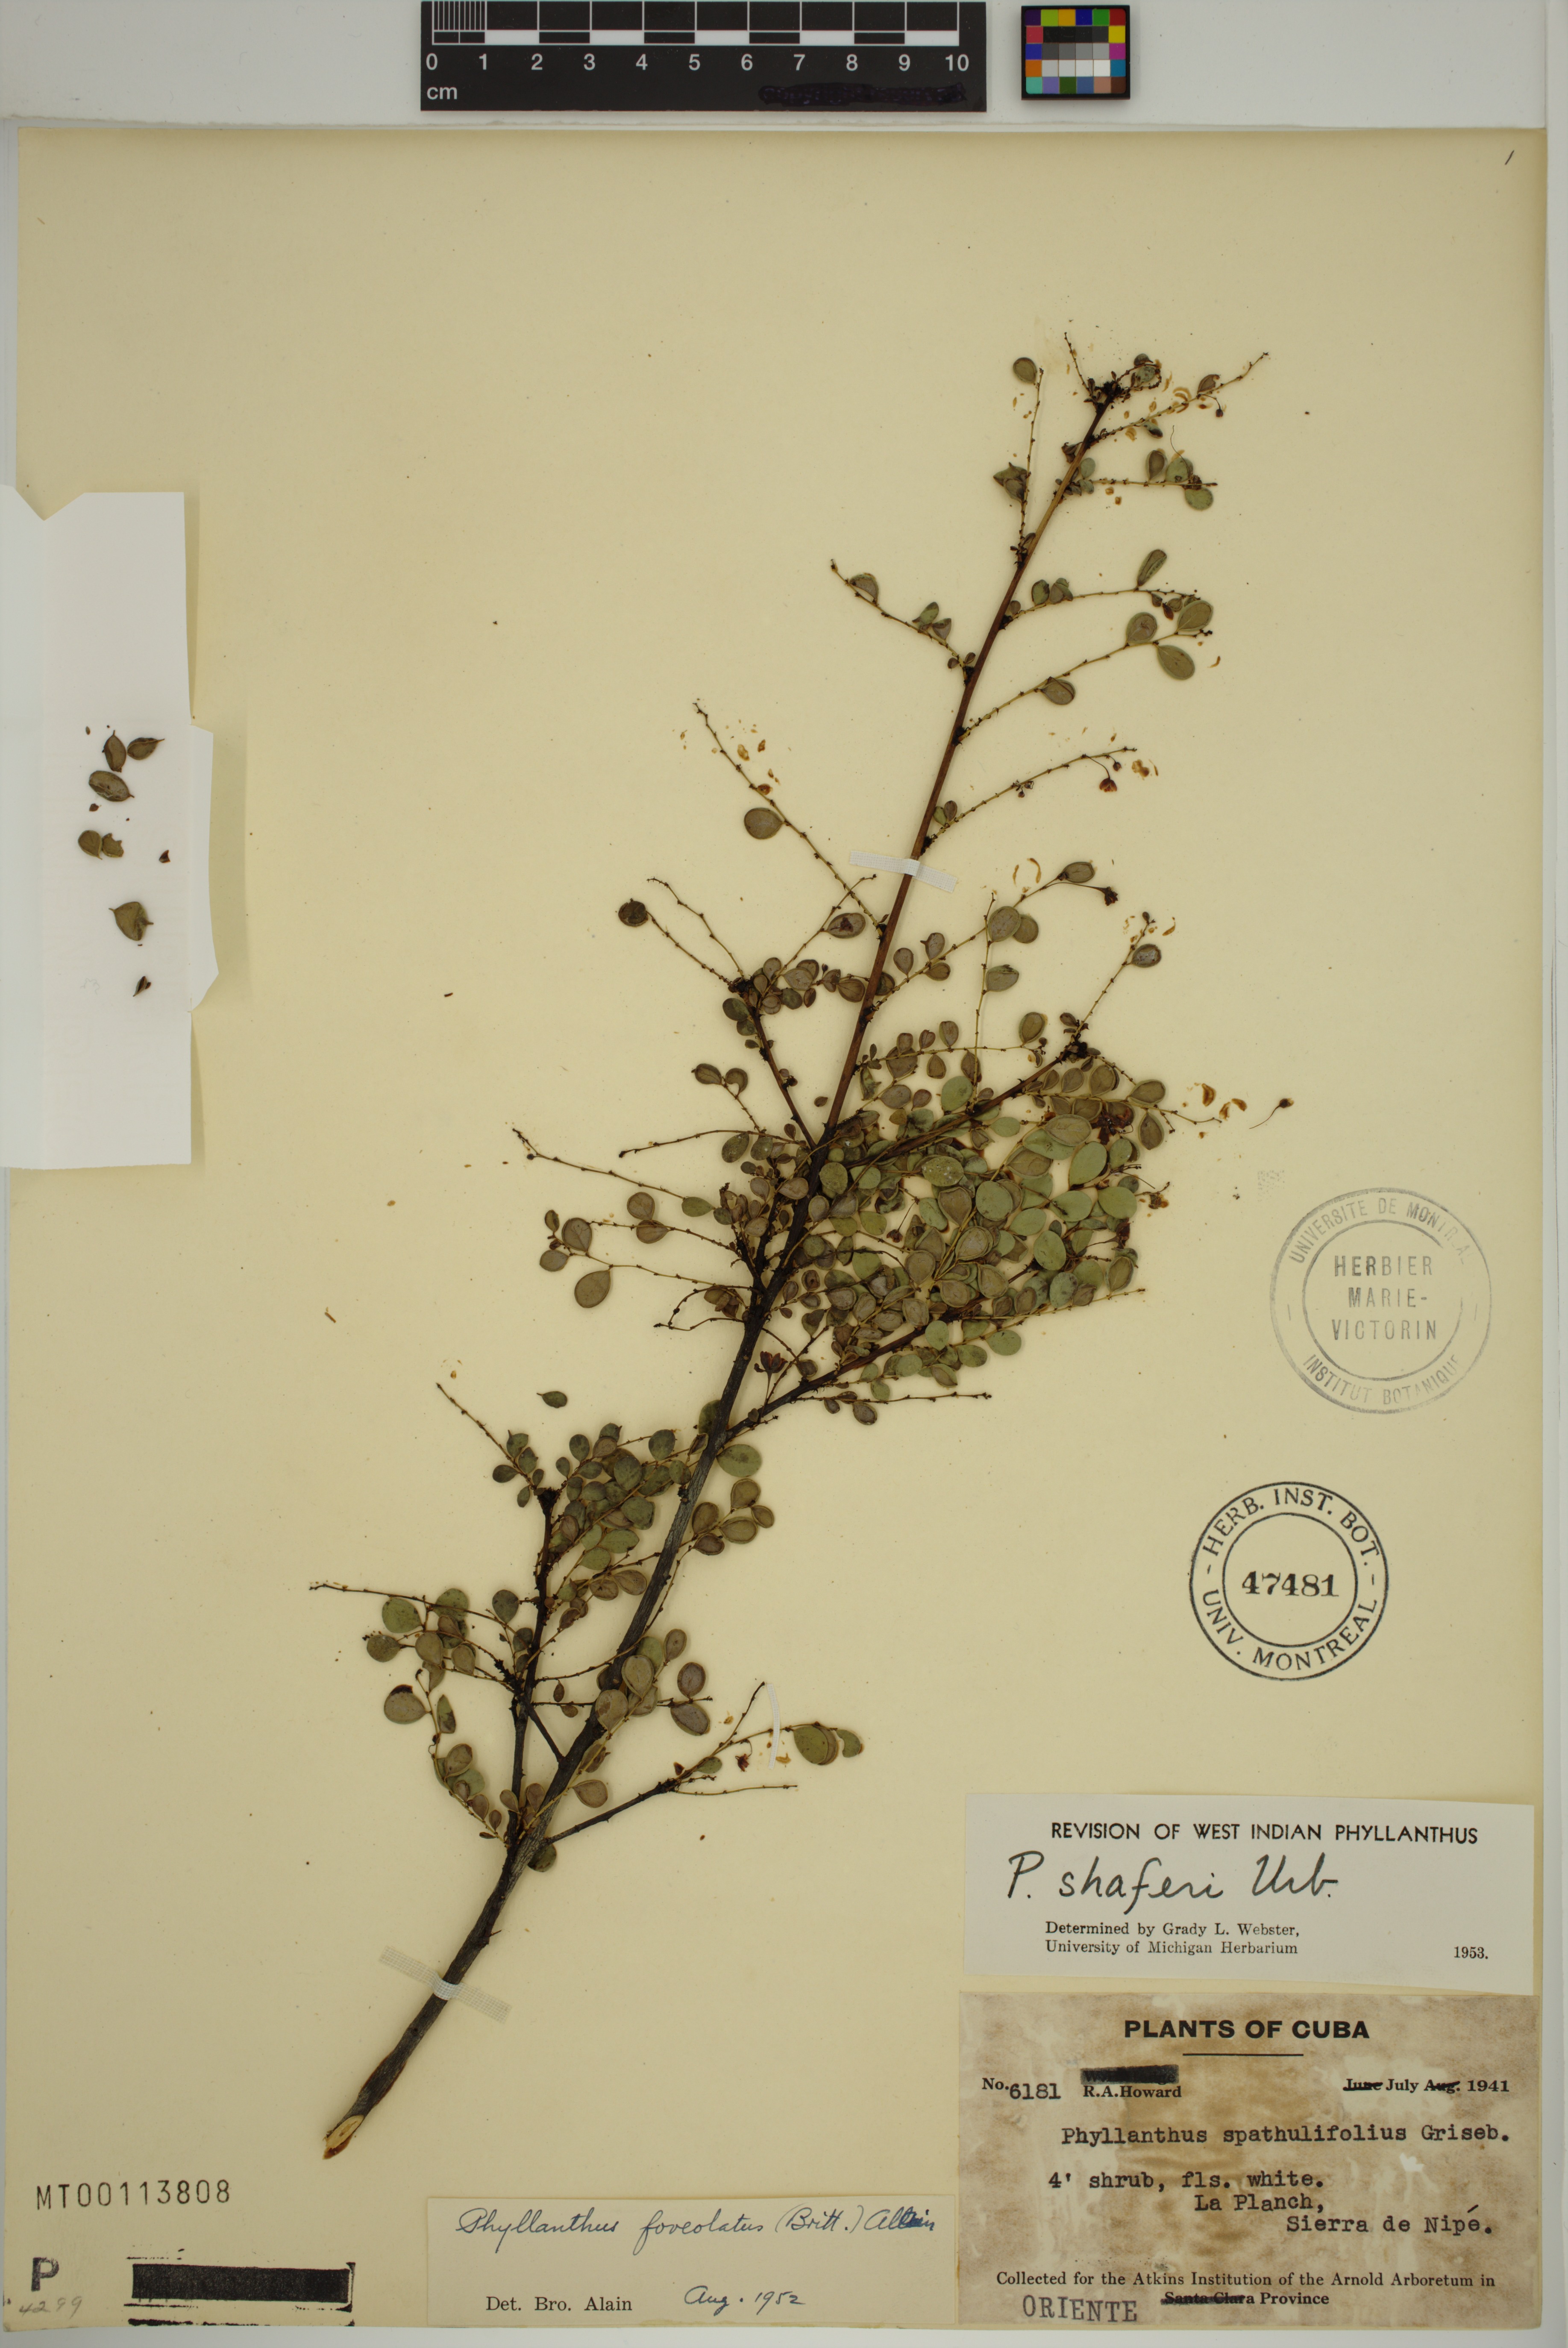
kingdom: Plantae
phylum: Tracheophyta
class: Magnoliopsida
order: Malpighiales
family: Phyllanthaceae
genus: Phyllanthus
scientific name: Phyllanthus myrtilloides
